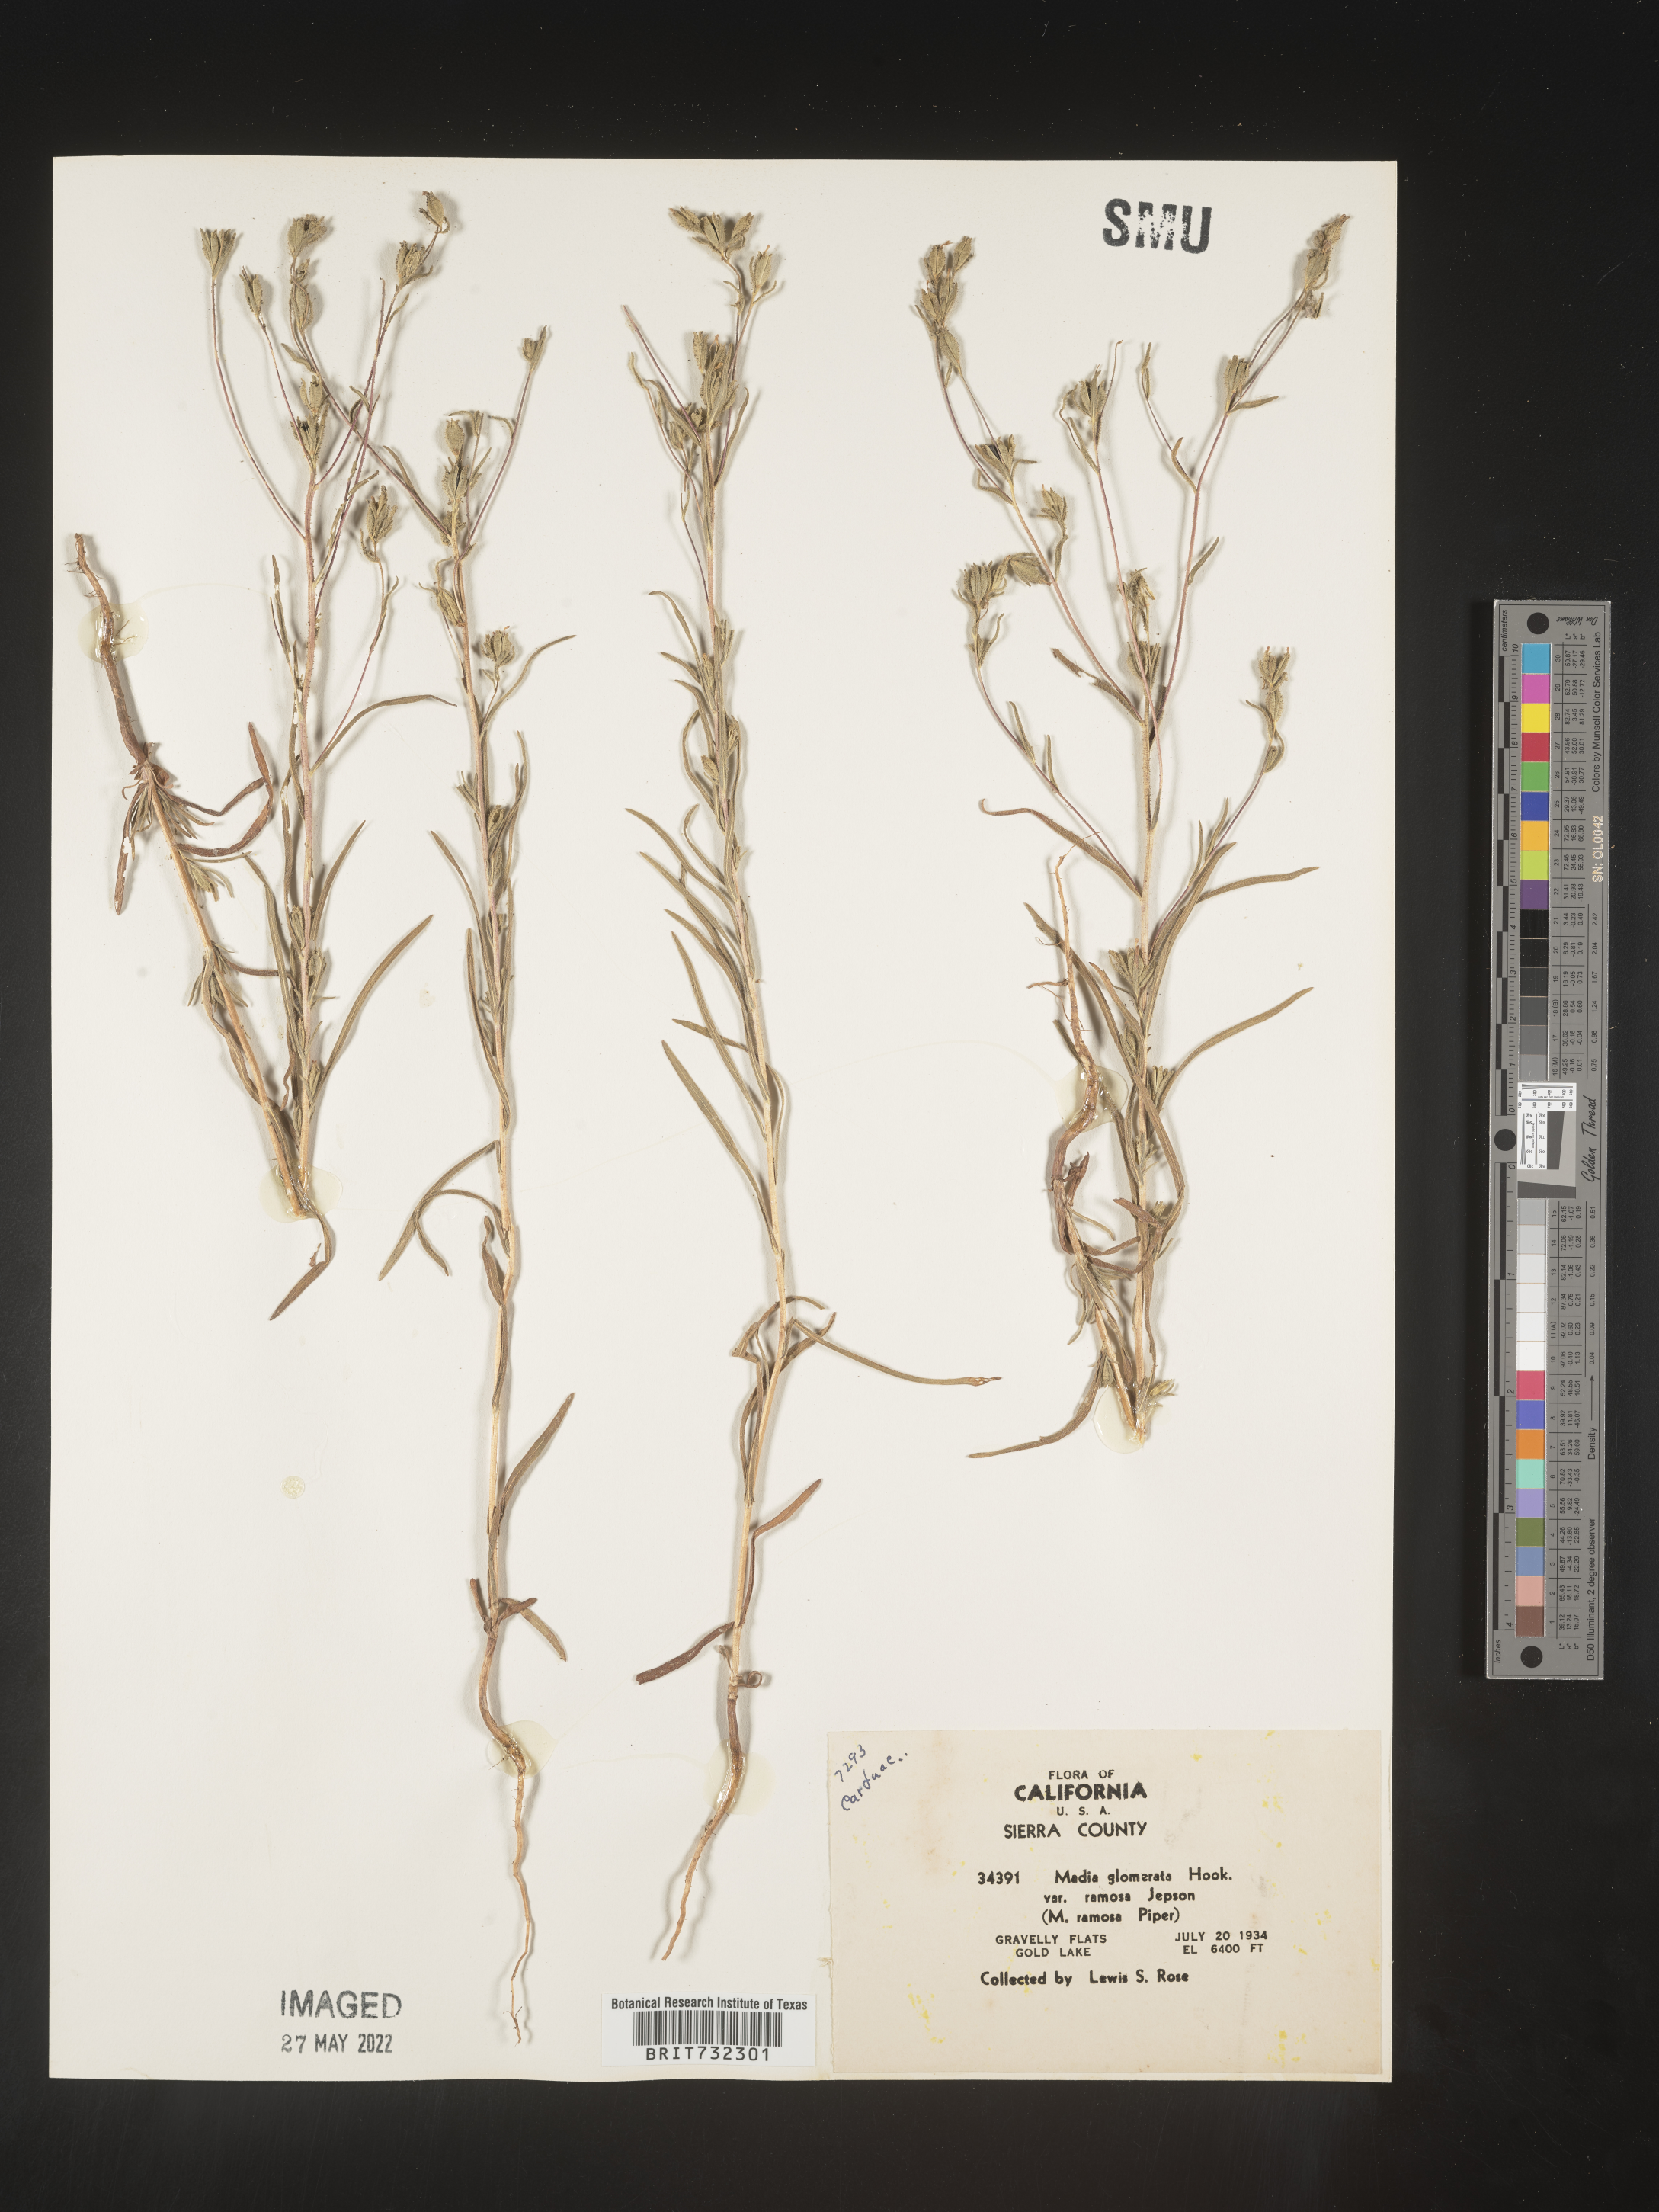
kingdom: Plantae
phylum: Tracheophyta
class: Magnoliopsida
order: Asterales
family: Asteraceae
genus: Madia
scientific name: Madia glomerata
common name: Mountain tarweed
